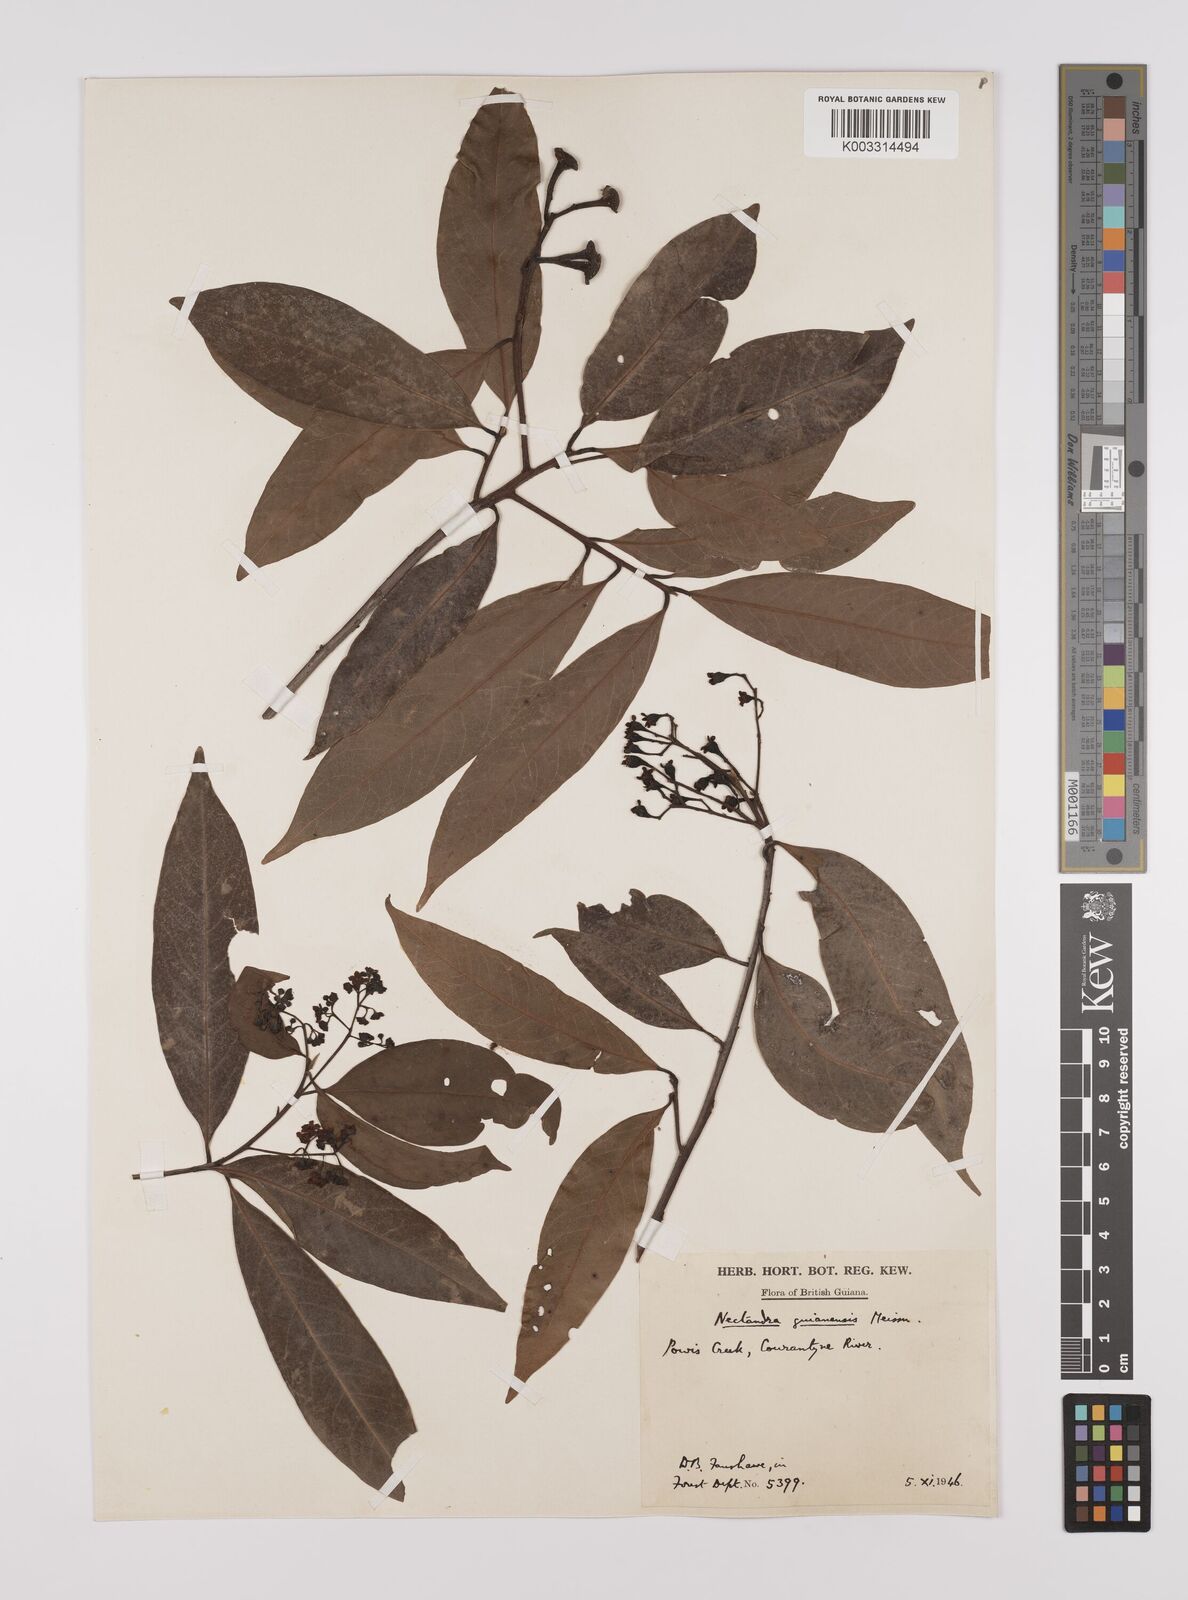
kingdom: Plantae
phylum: Tracheophyta
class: Magnoliopsida
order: Laurales
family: Lauraceae
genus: Nectandra
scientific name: Nectandra sanguinea
